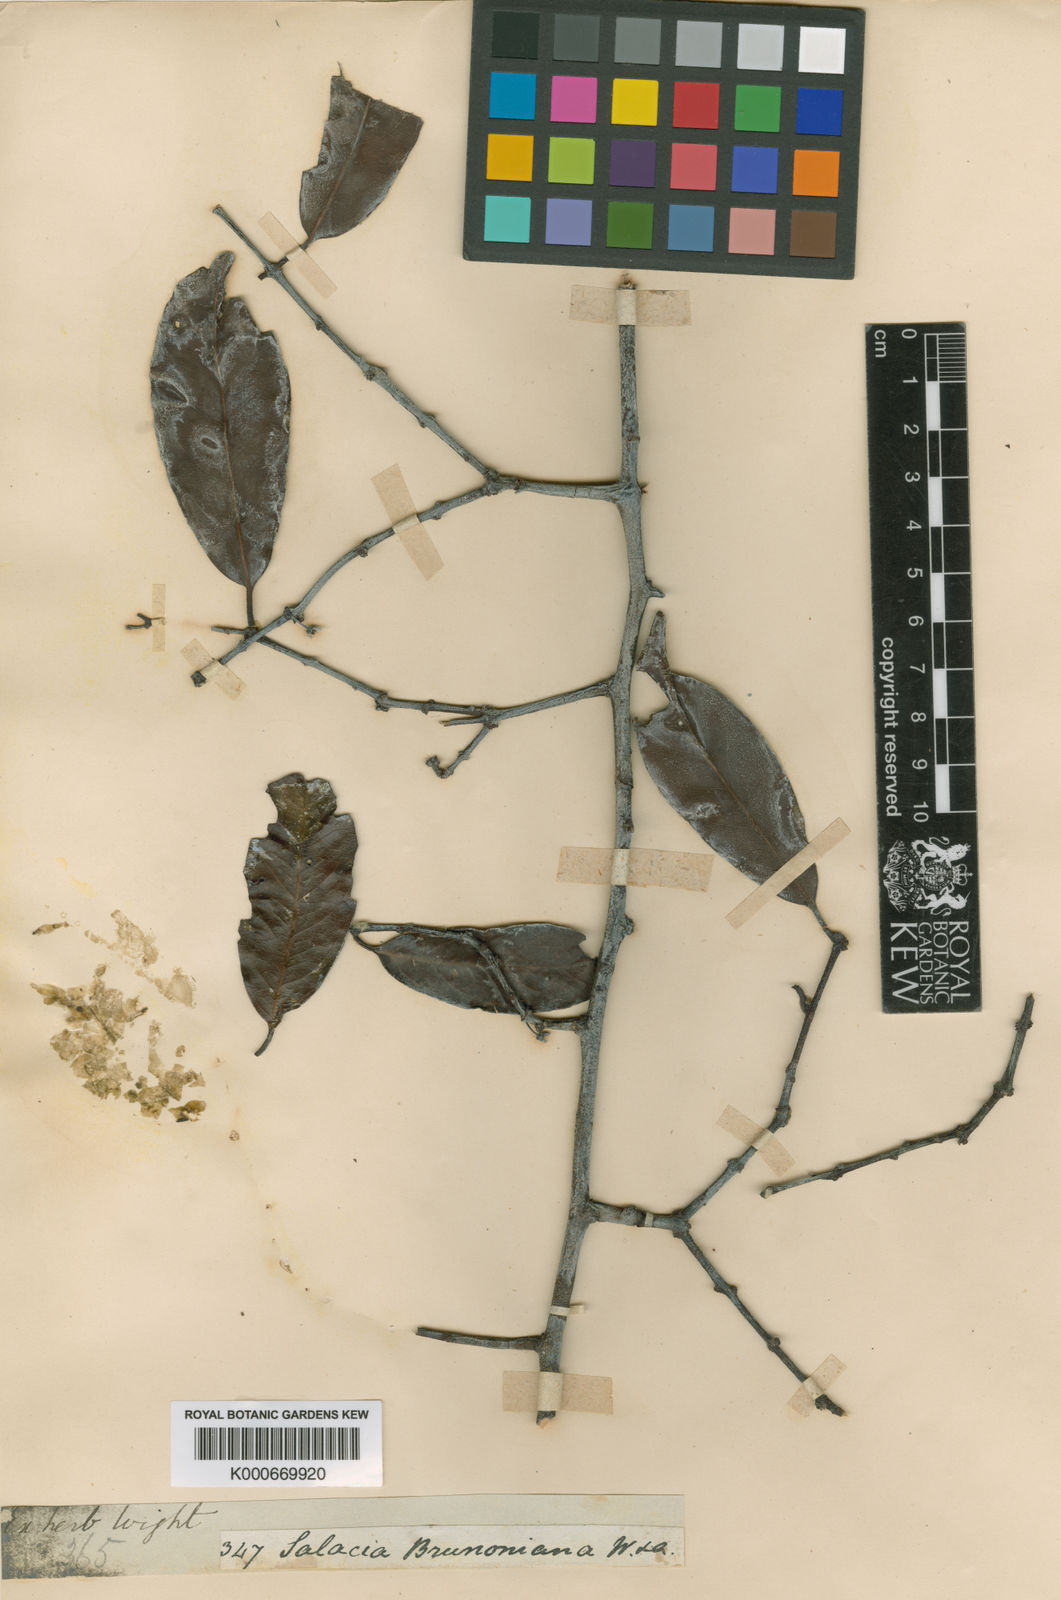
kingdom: Plantae
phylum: Tracheophyta
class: Magnoliopsida
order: Celastrales
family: Celastraceae
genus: Salacia
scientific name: Salacia brunoniana
